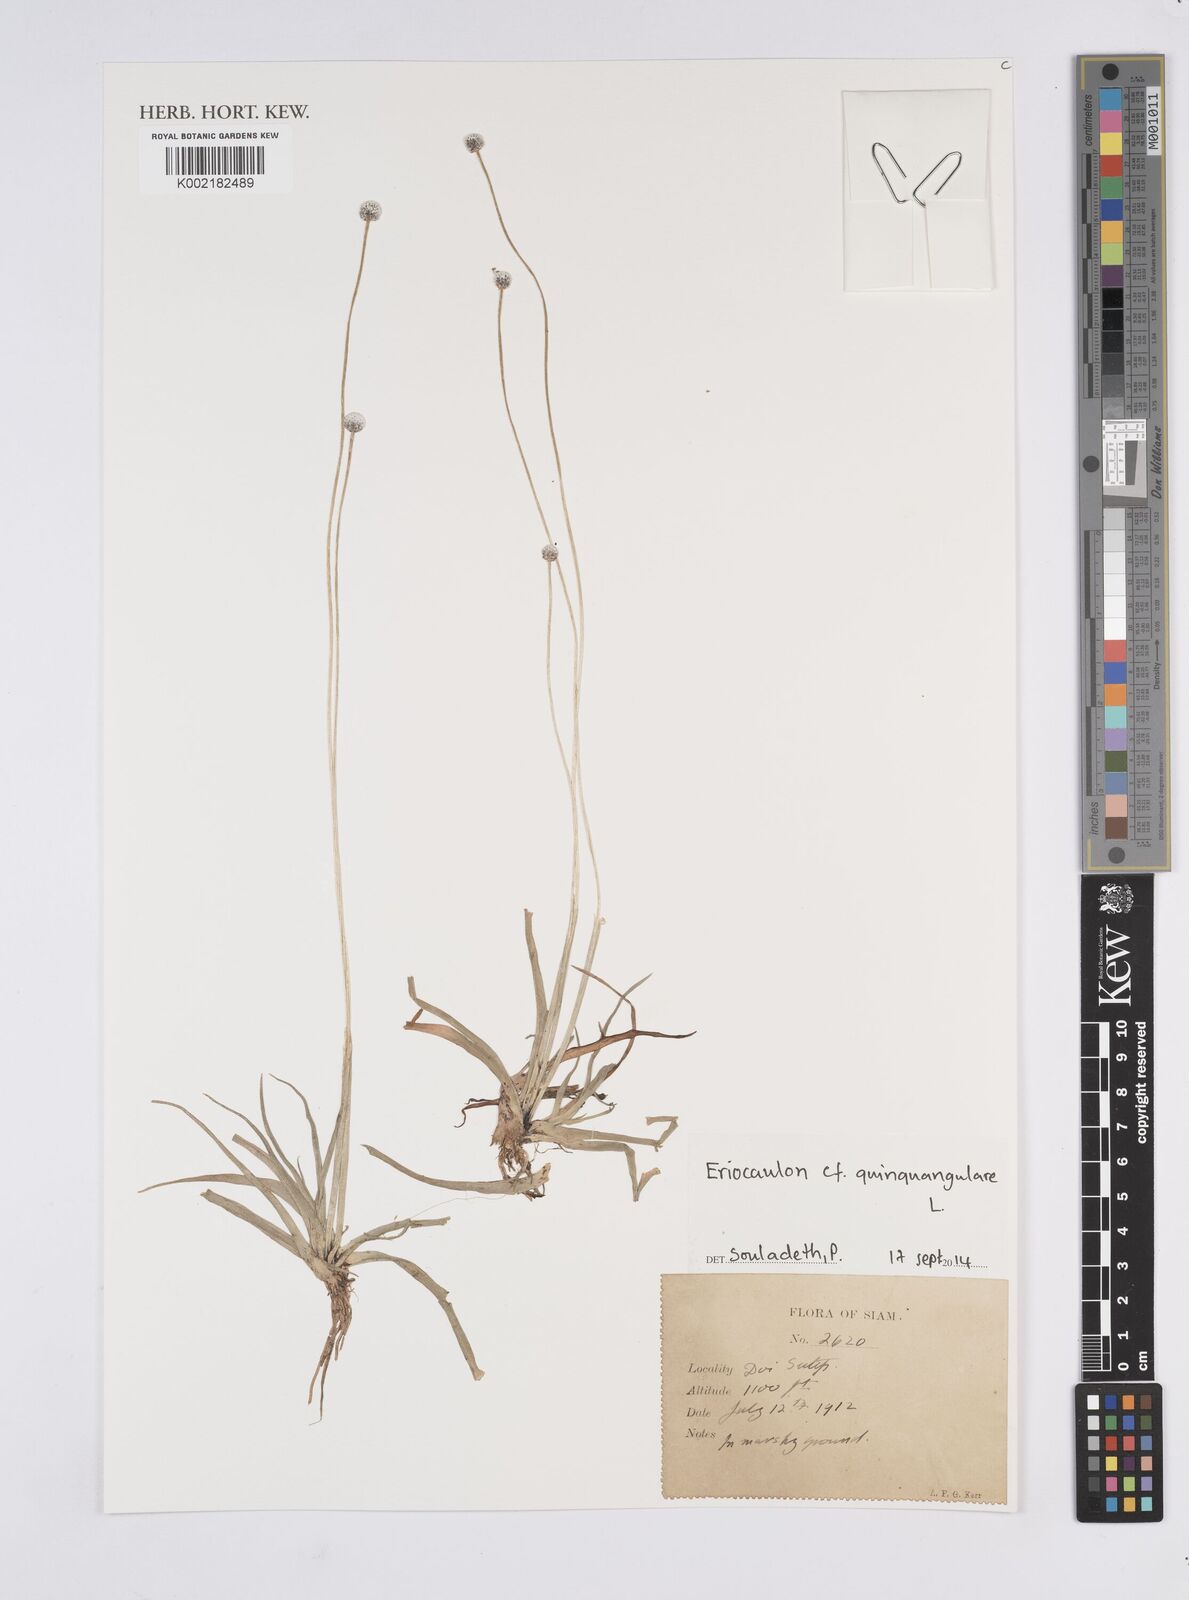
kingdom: Plantae
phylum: Tracheophyta
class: Liliopsida
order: Poales
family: Eriocaulaceae
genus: Eriocaulon
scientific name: Eriocaulon quinquangulare
